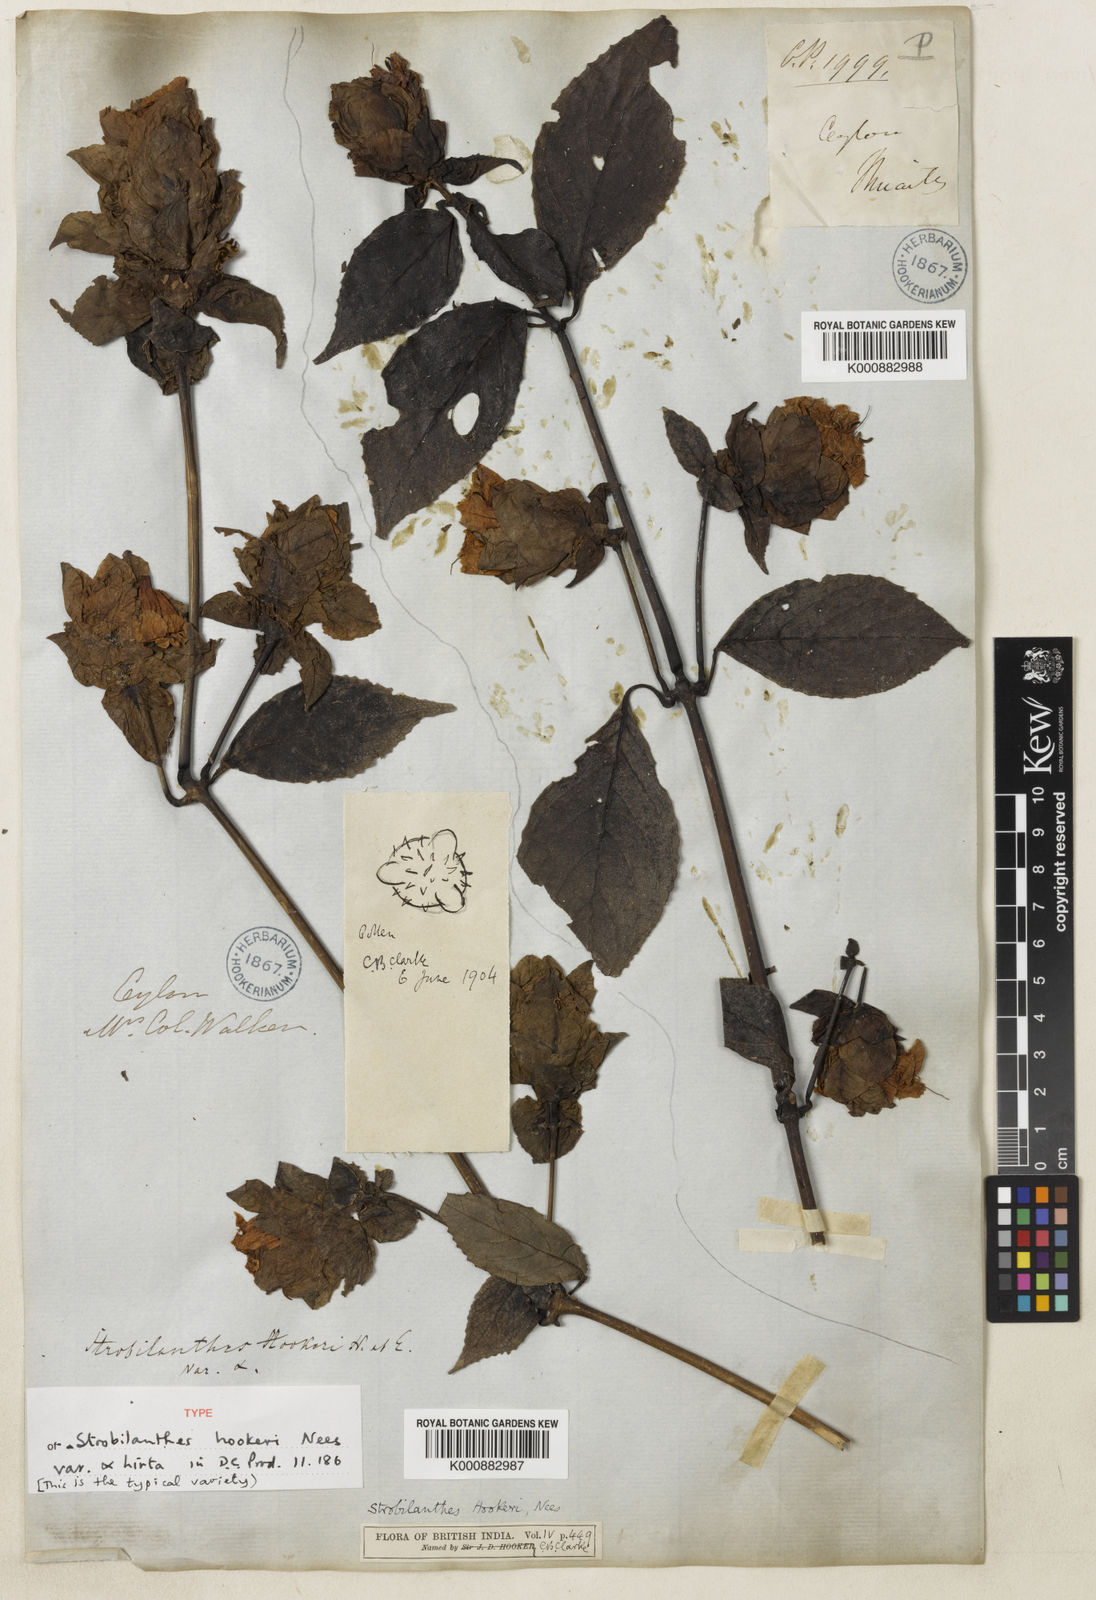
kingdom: Plantae
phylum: Tracheophyta
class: Magnoliopsida
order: Lamiales
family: Acanthaceae
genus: Strobilanthes
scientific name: Strobilanthes hookeri
